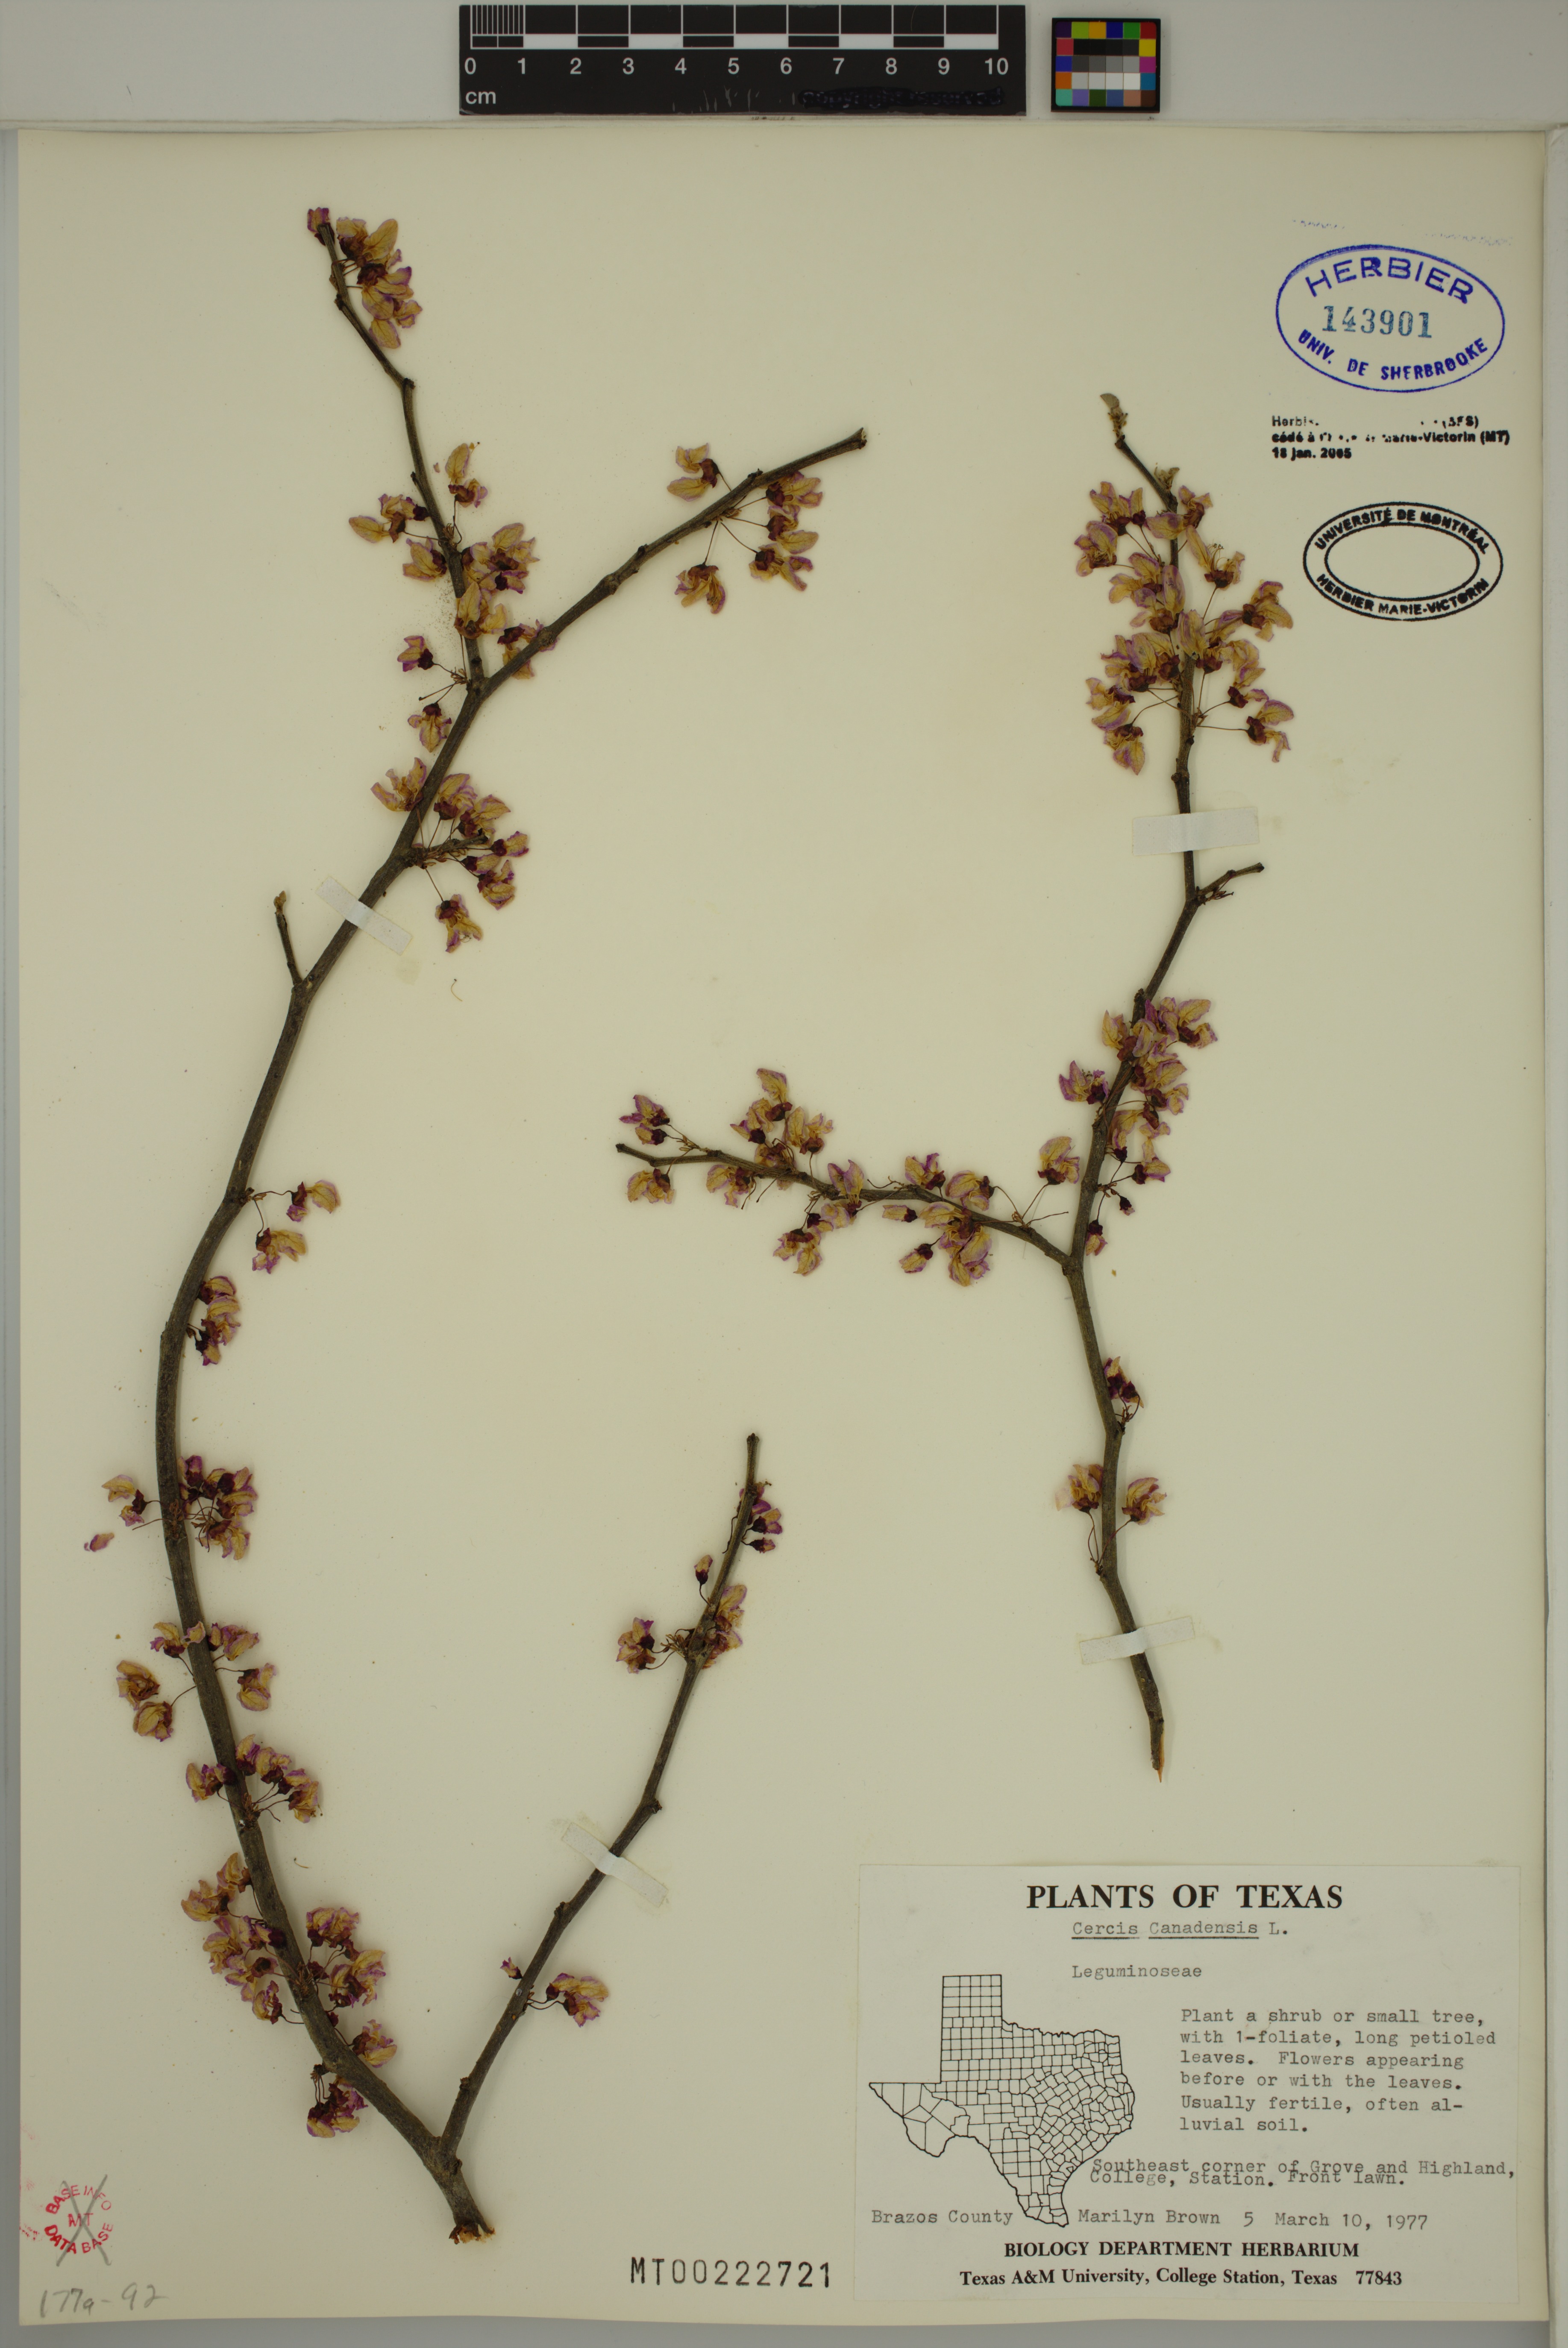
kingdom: Plantae
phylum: Tracheophyta
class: Magnoliopsida
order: Fabales
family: Fabaceae
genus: Cercis
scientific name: Cercis canadensis
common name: Eastern redbud
